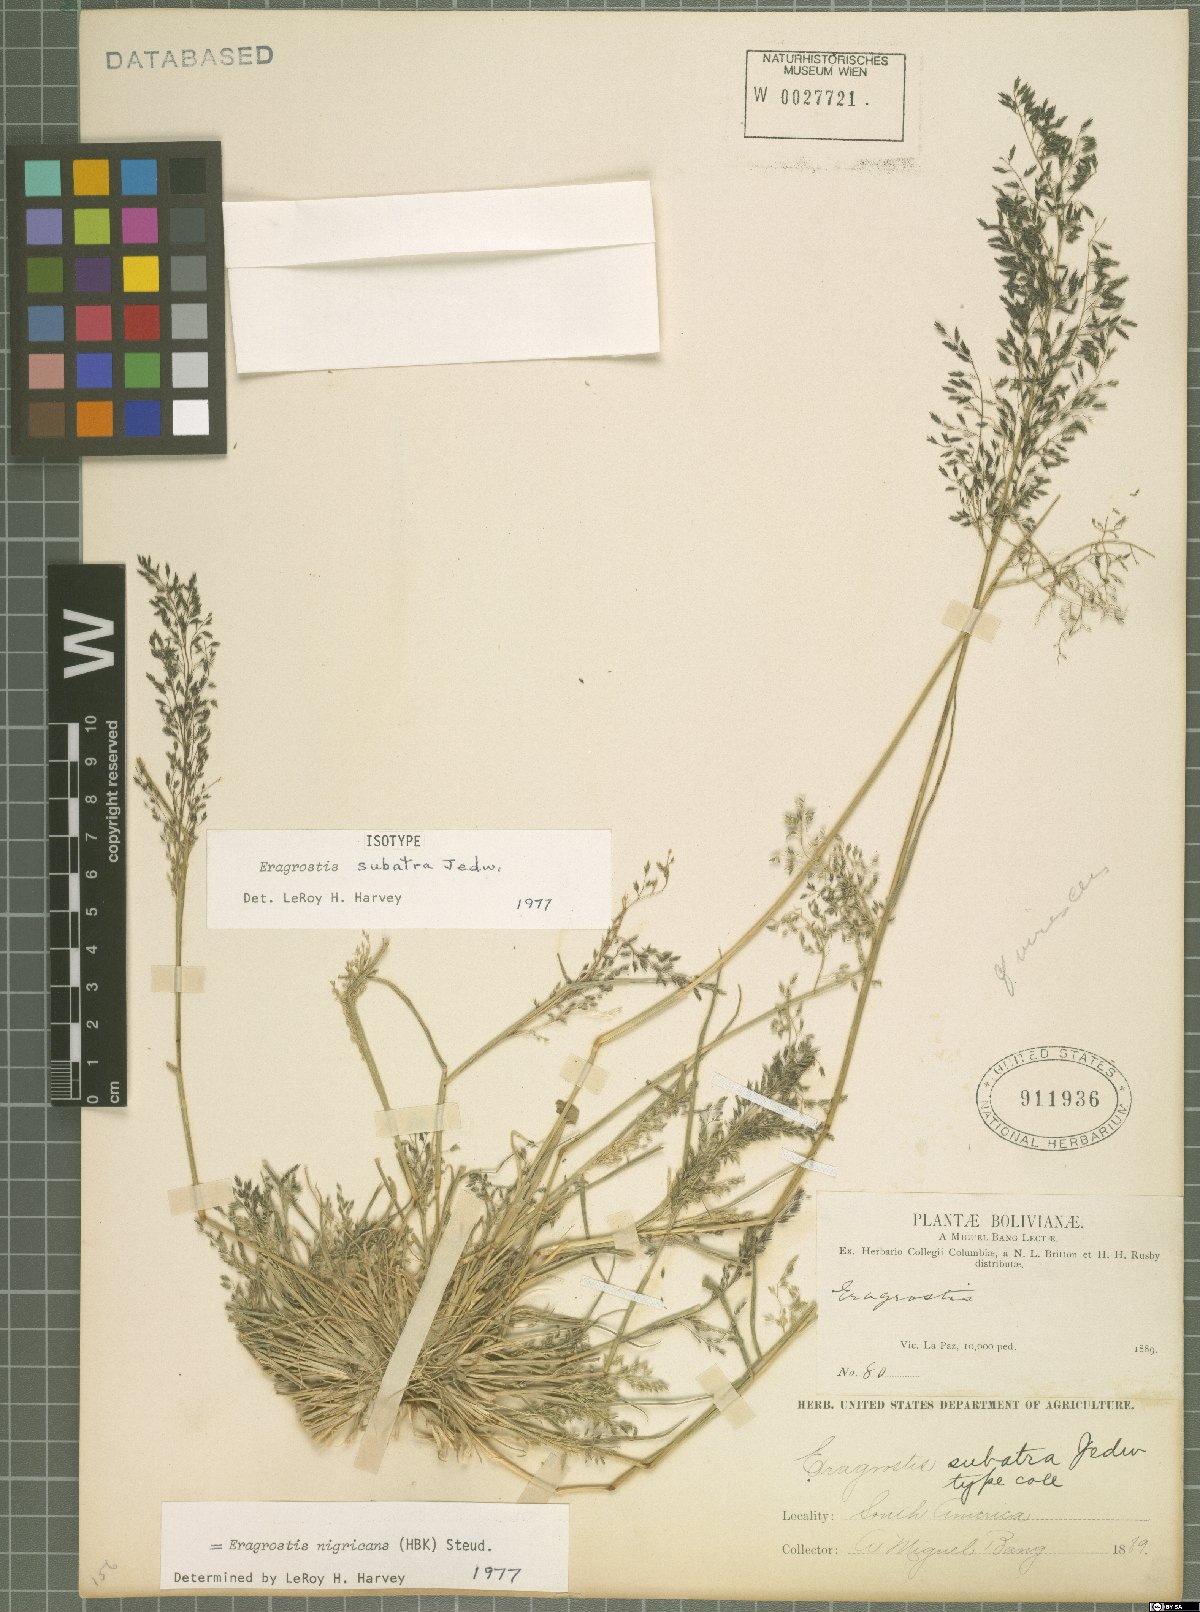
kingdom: Plantae
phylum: Tracheophyta
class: Liliopsida
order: Poales
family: Poaceae
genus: Eragrostis
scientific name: Eragrostis nigricans
